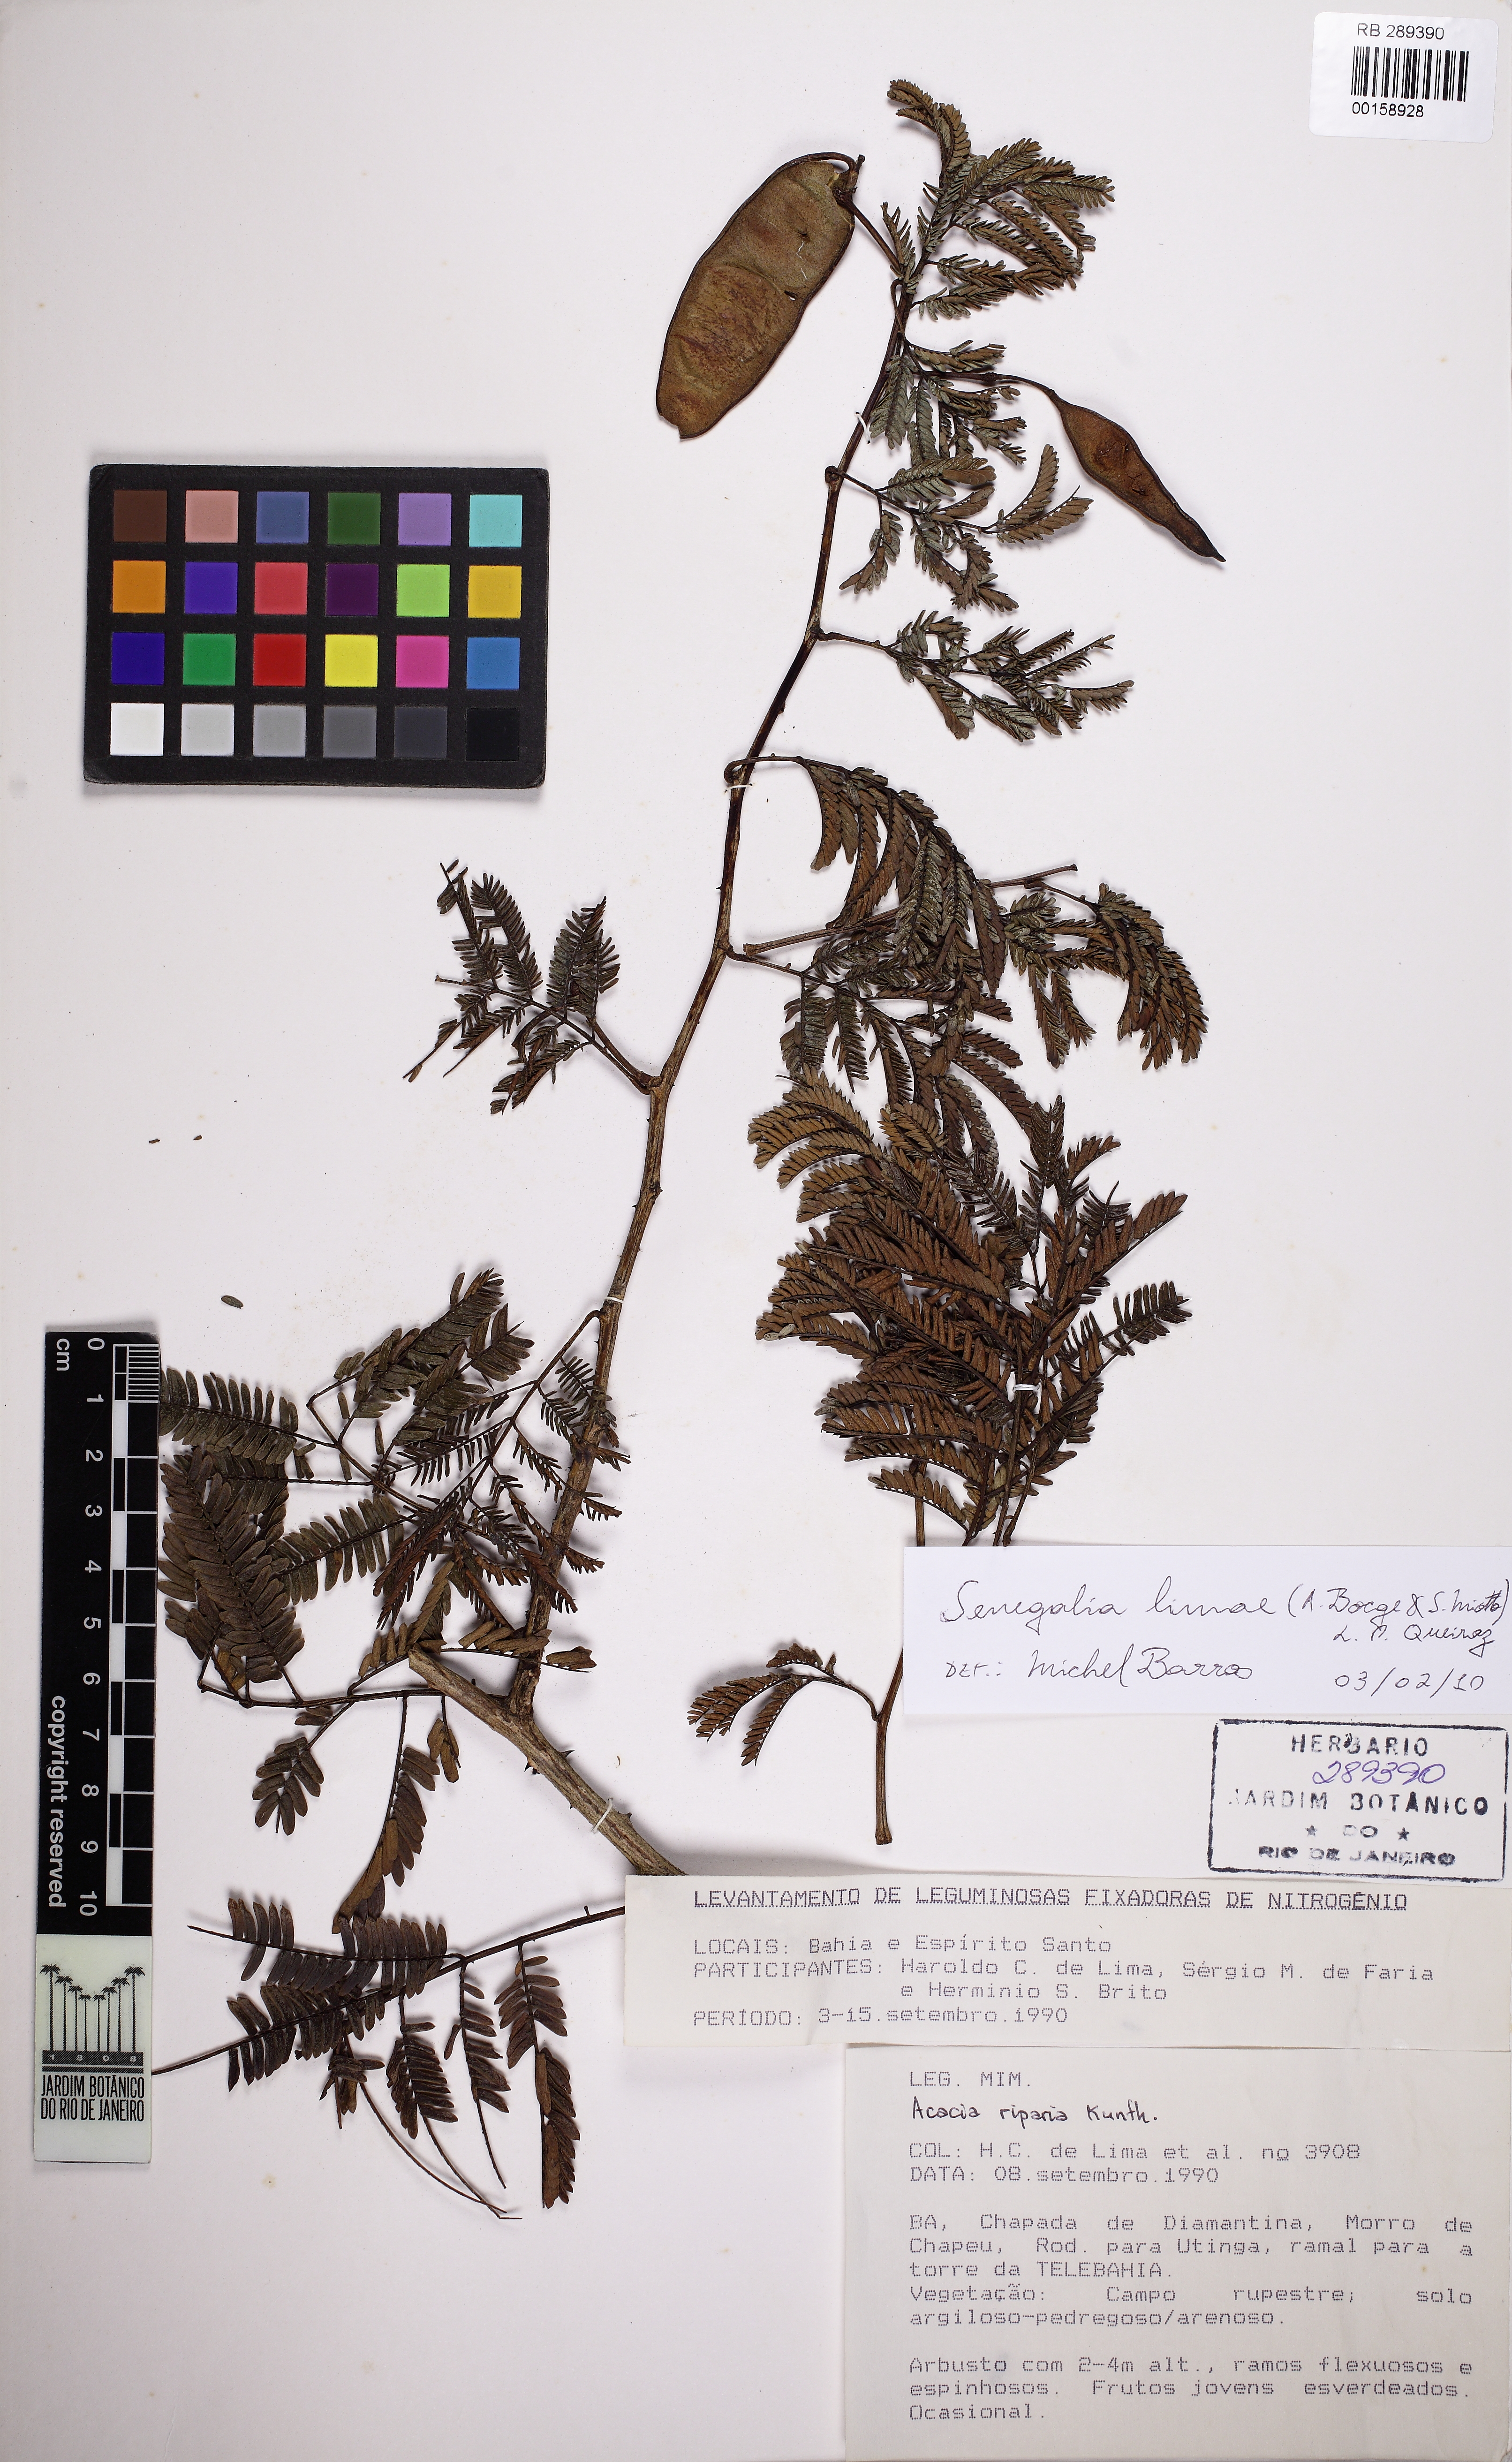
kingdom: Plantae
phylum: Tracheophyta
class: Magnoliopsida
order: Fabales
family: Fabaceae
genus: Senegalia
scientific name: Senegalia lasiophylla
